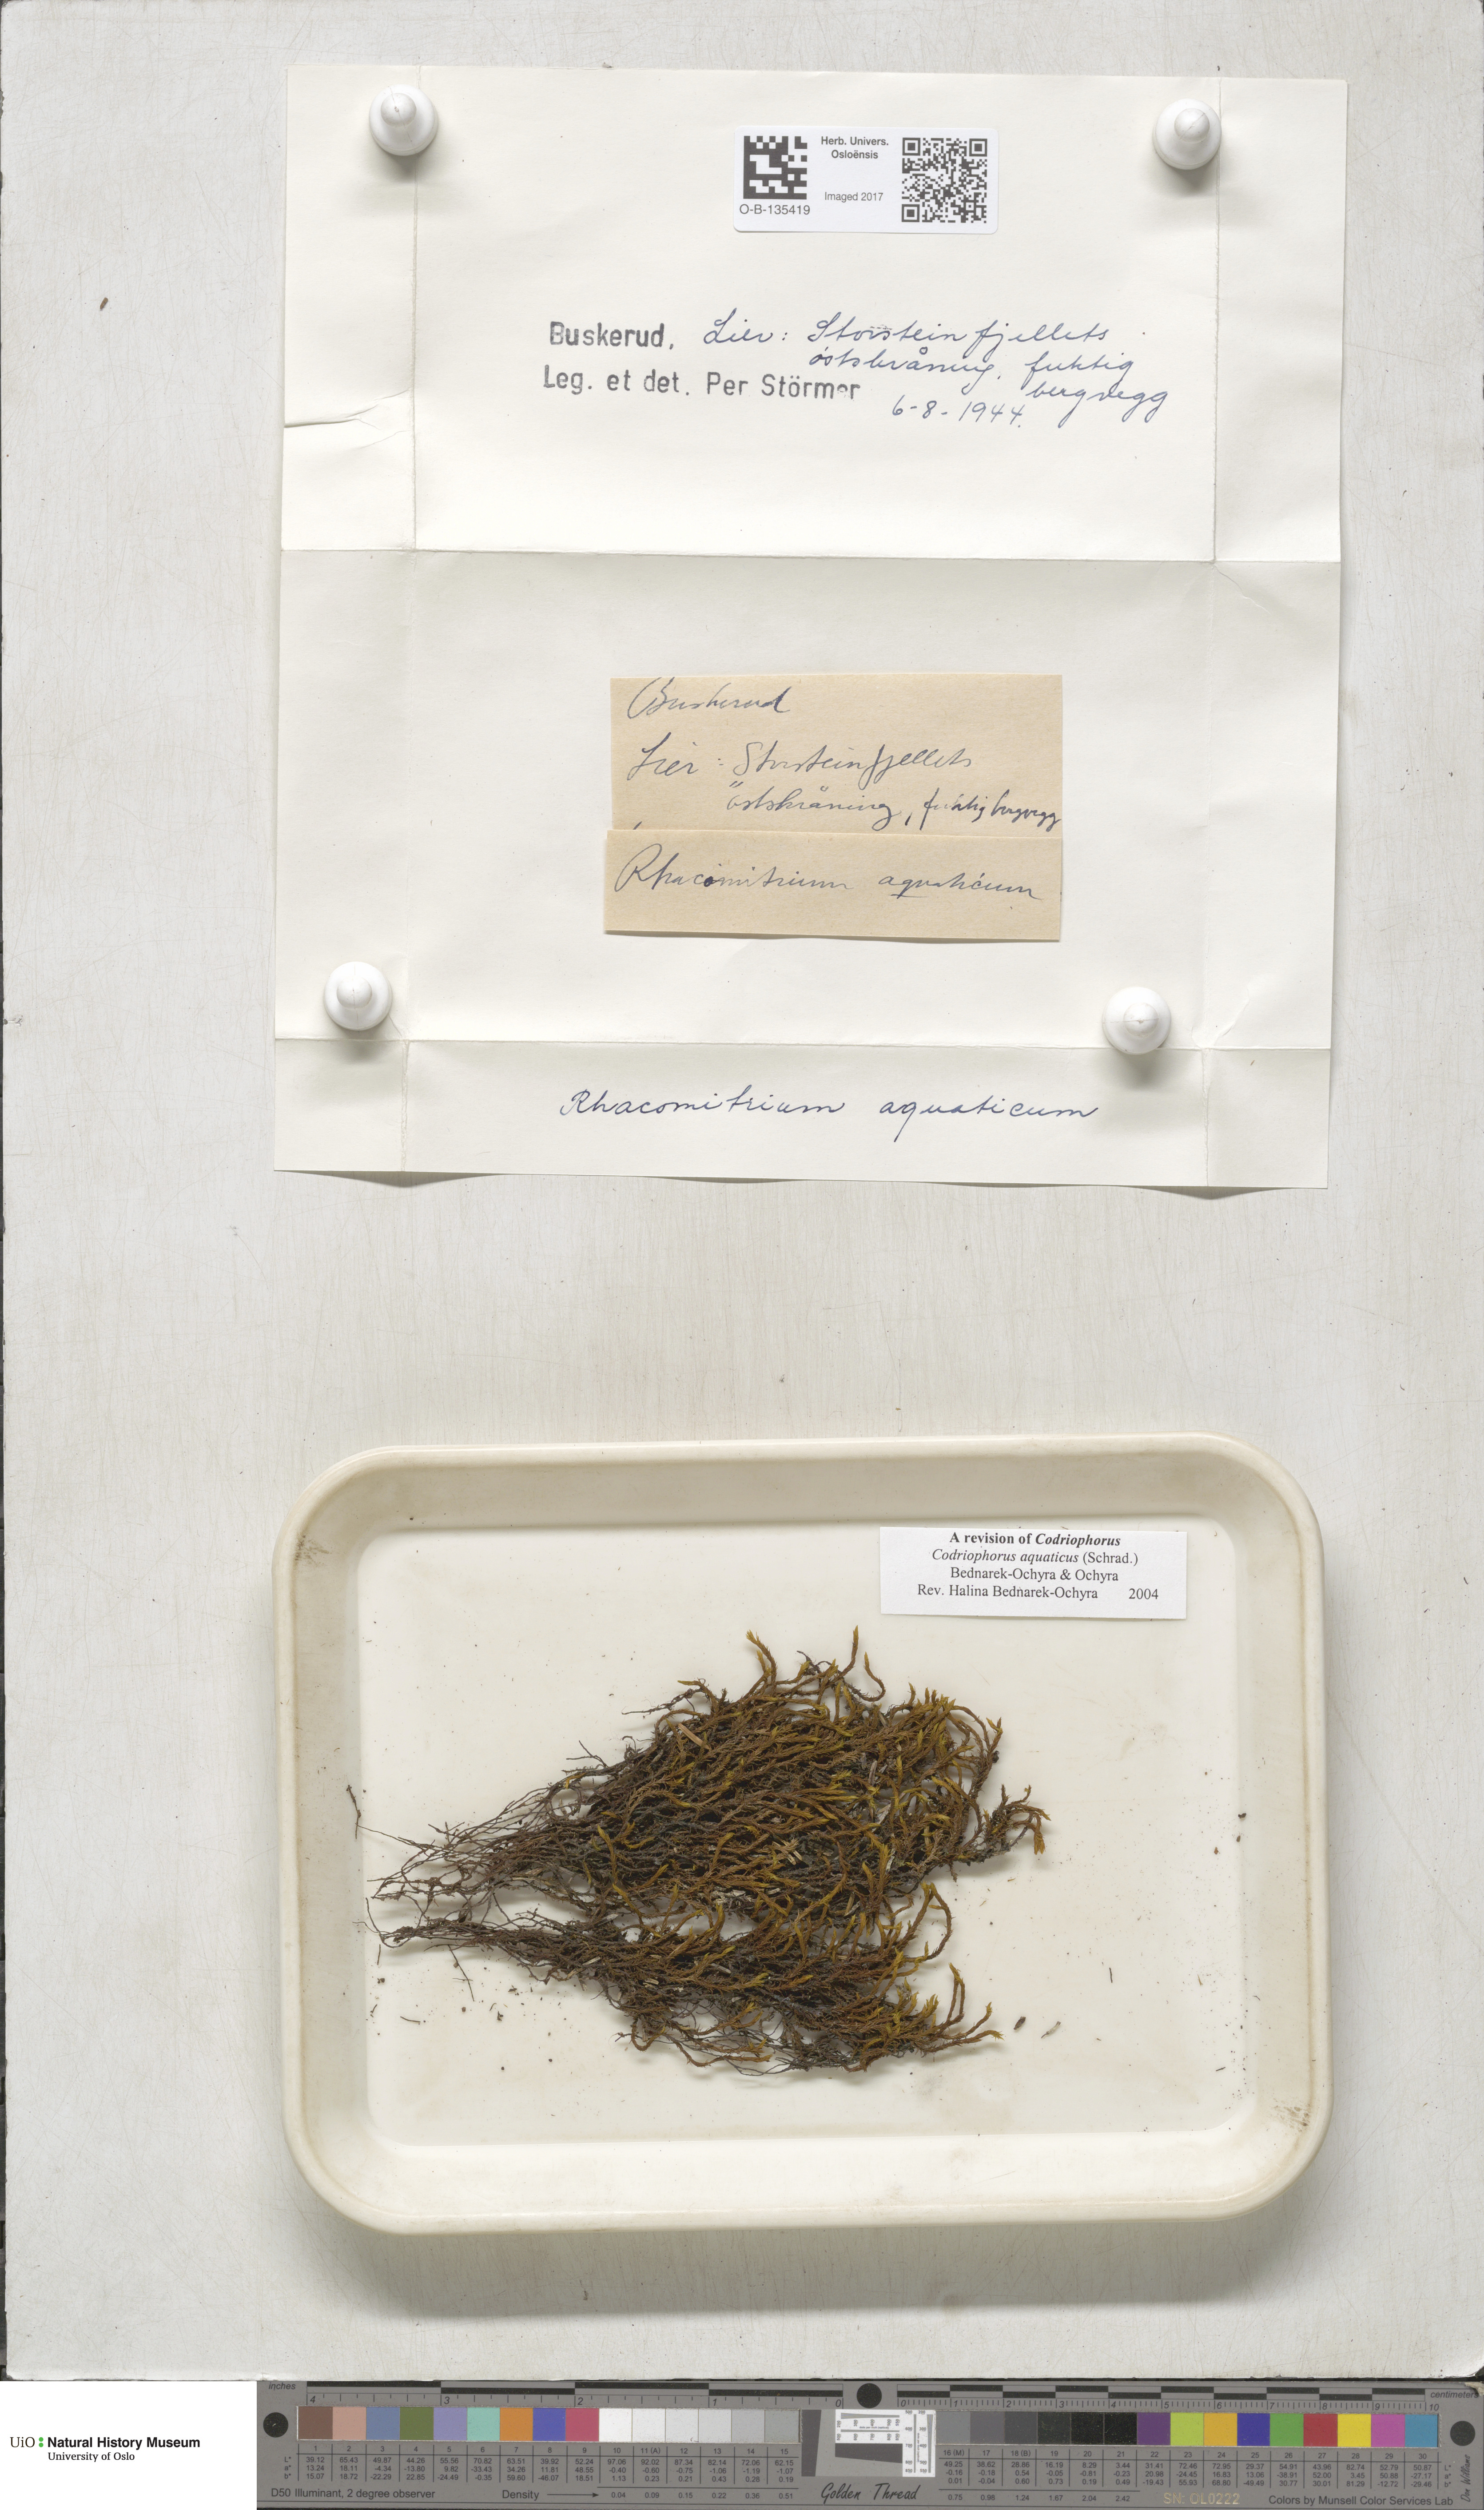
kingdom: Plantae
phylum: Bryophyta
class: Bryopsida
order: Grimmiales
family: Grimmiaceae
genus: Codriophorus
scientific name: Codriophorus aquaticus
